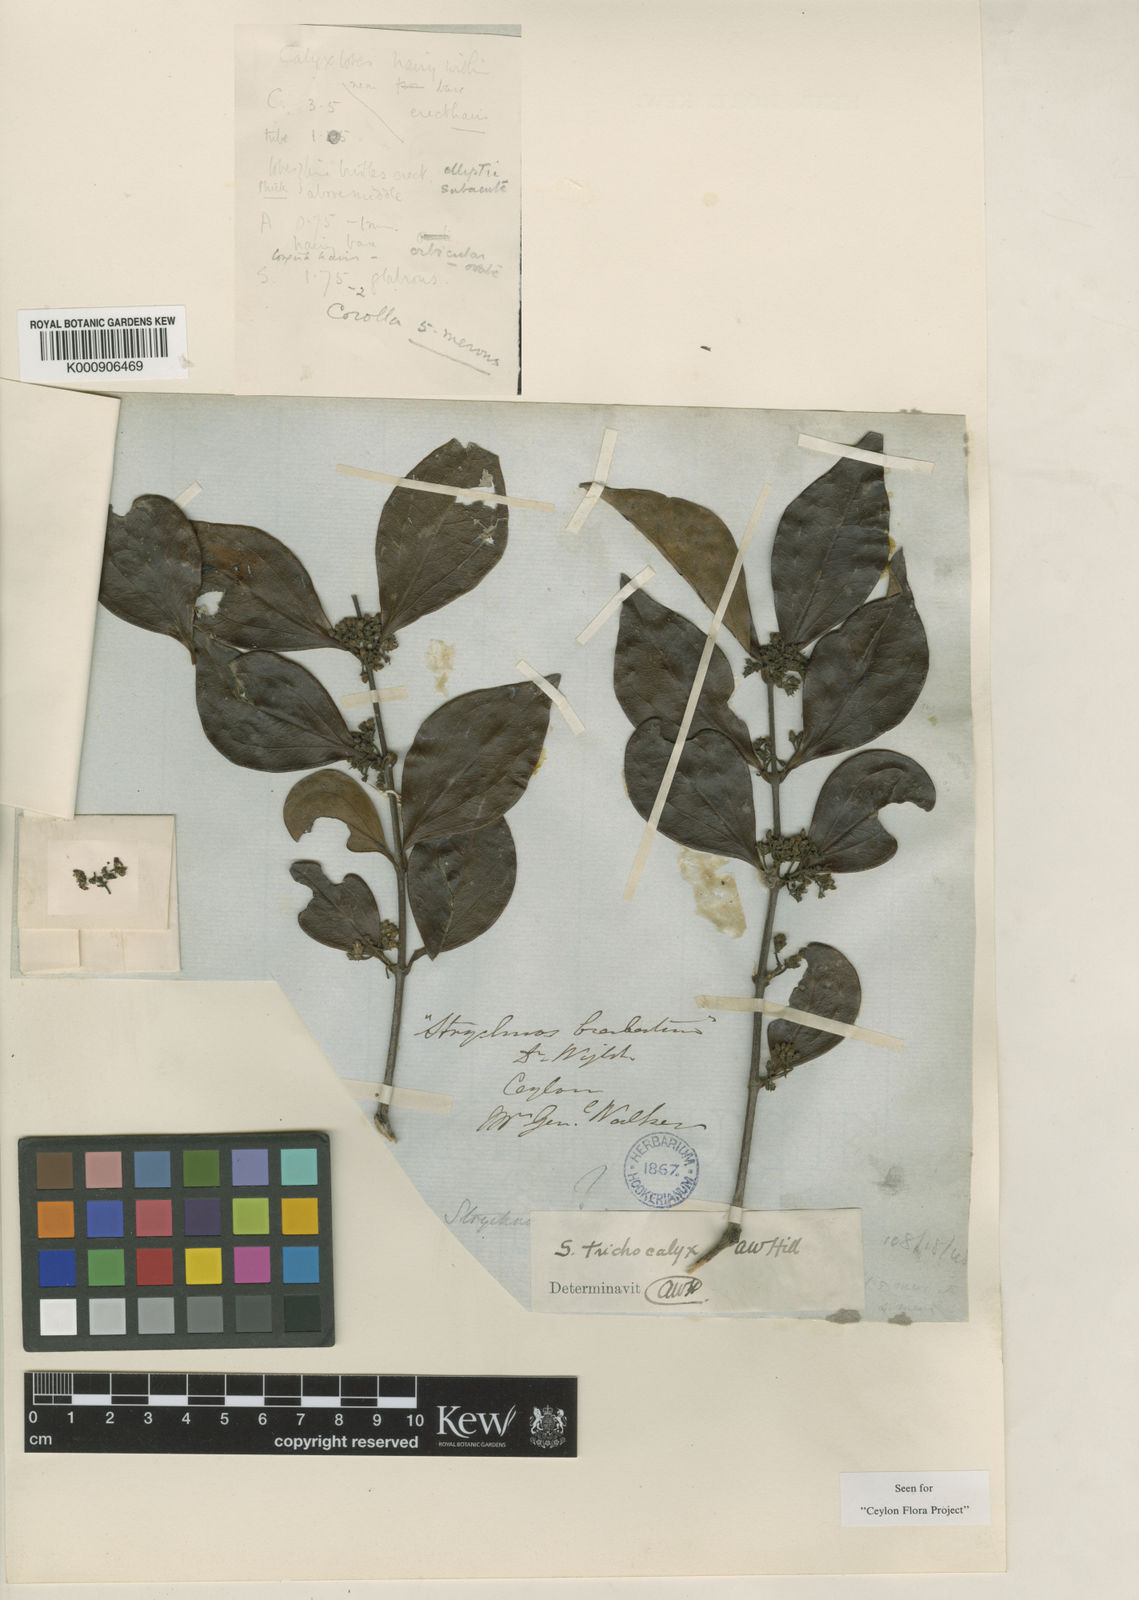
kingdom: Plantae
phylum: Tracheophyta
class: Magnoliopsida
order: Gentianales
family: Loganiaceae
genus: Strychnos
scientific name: Strychnos trichocalyx
